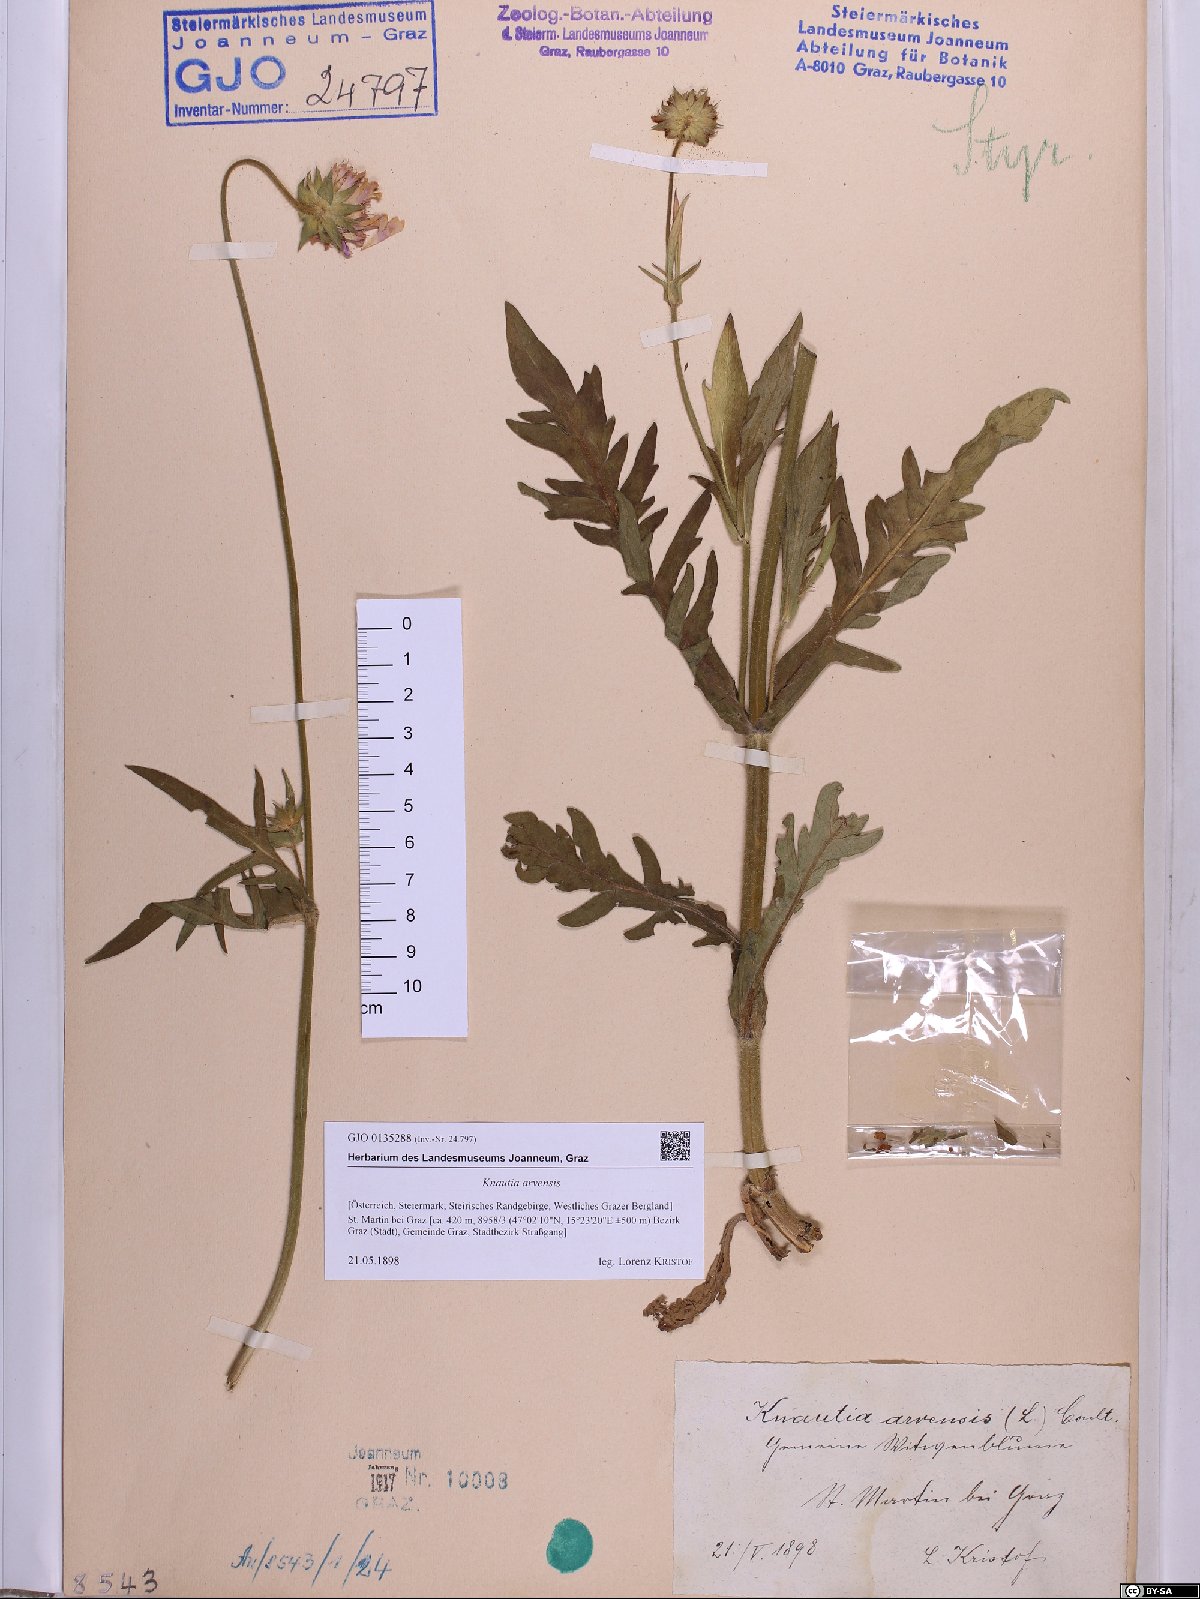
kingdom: Plantae
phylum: Tracheophyta
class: Magnoliopsida
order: Dipsacales
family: Caprifoliaceae
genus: Knautia
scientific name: Knautia arvensis
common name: Field scabiosa
